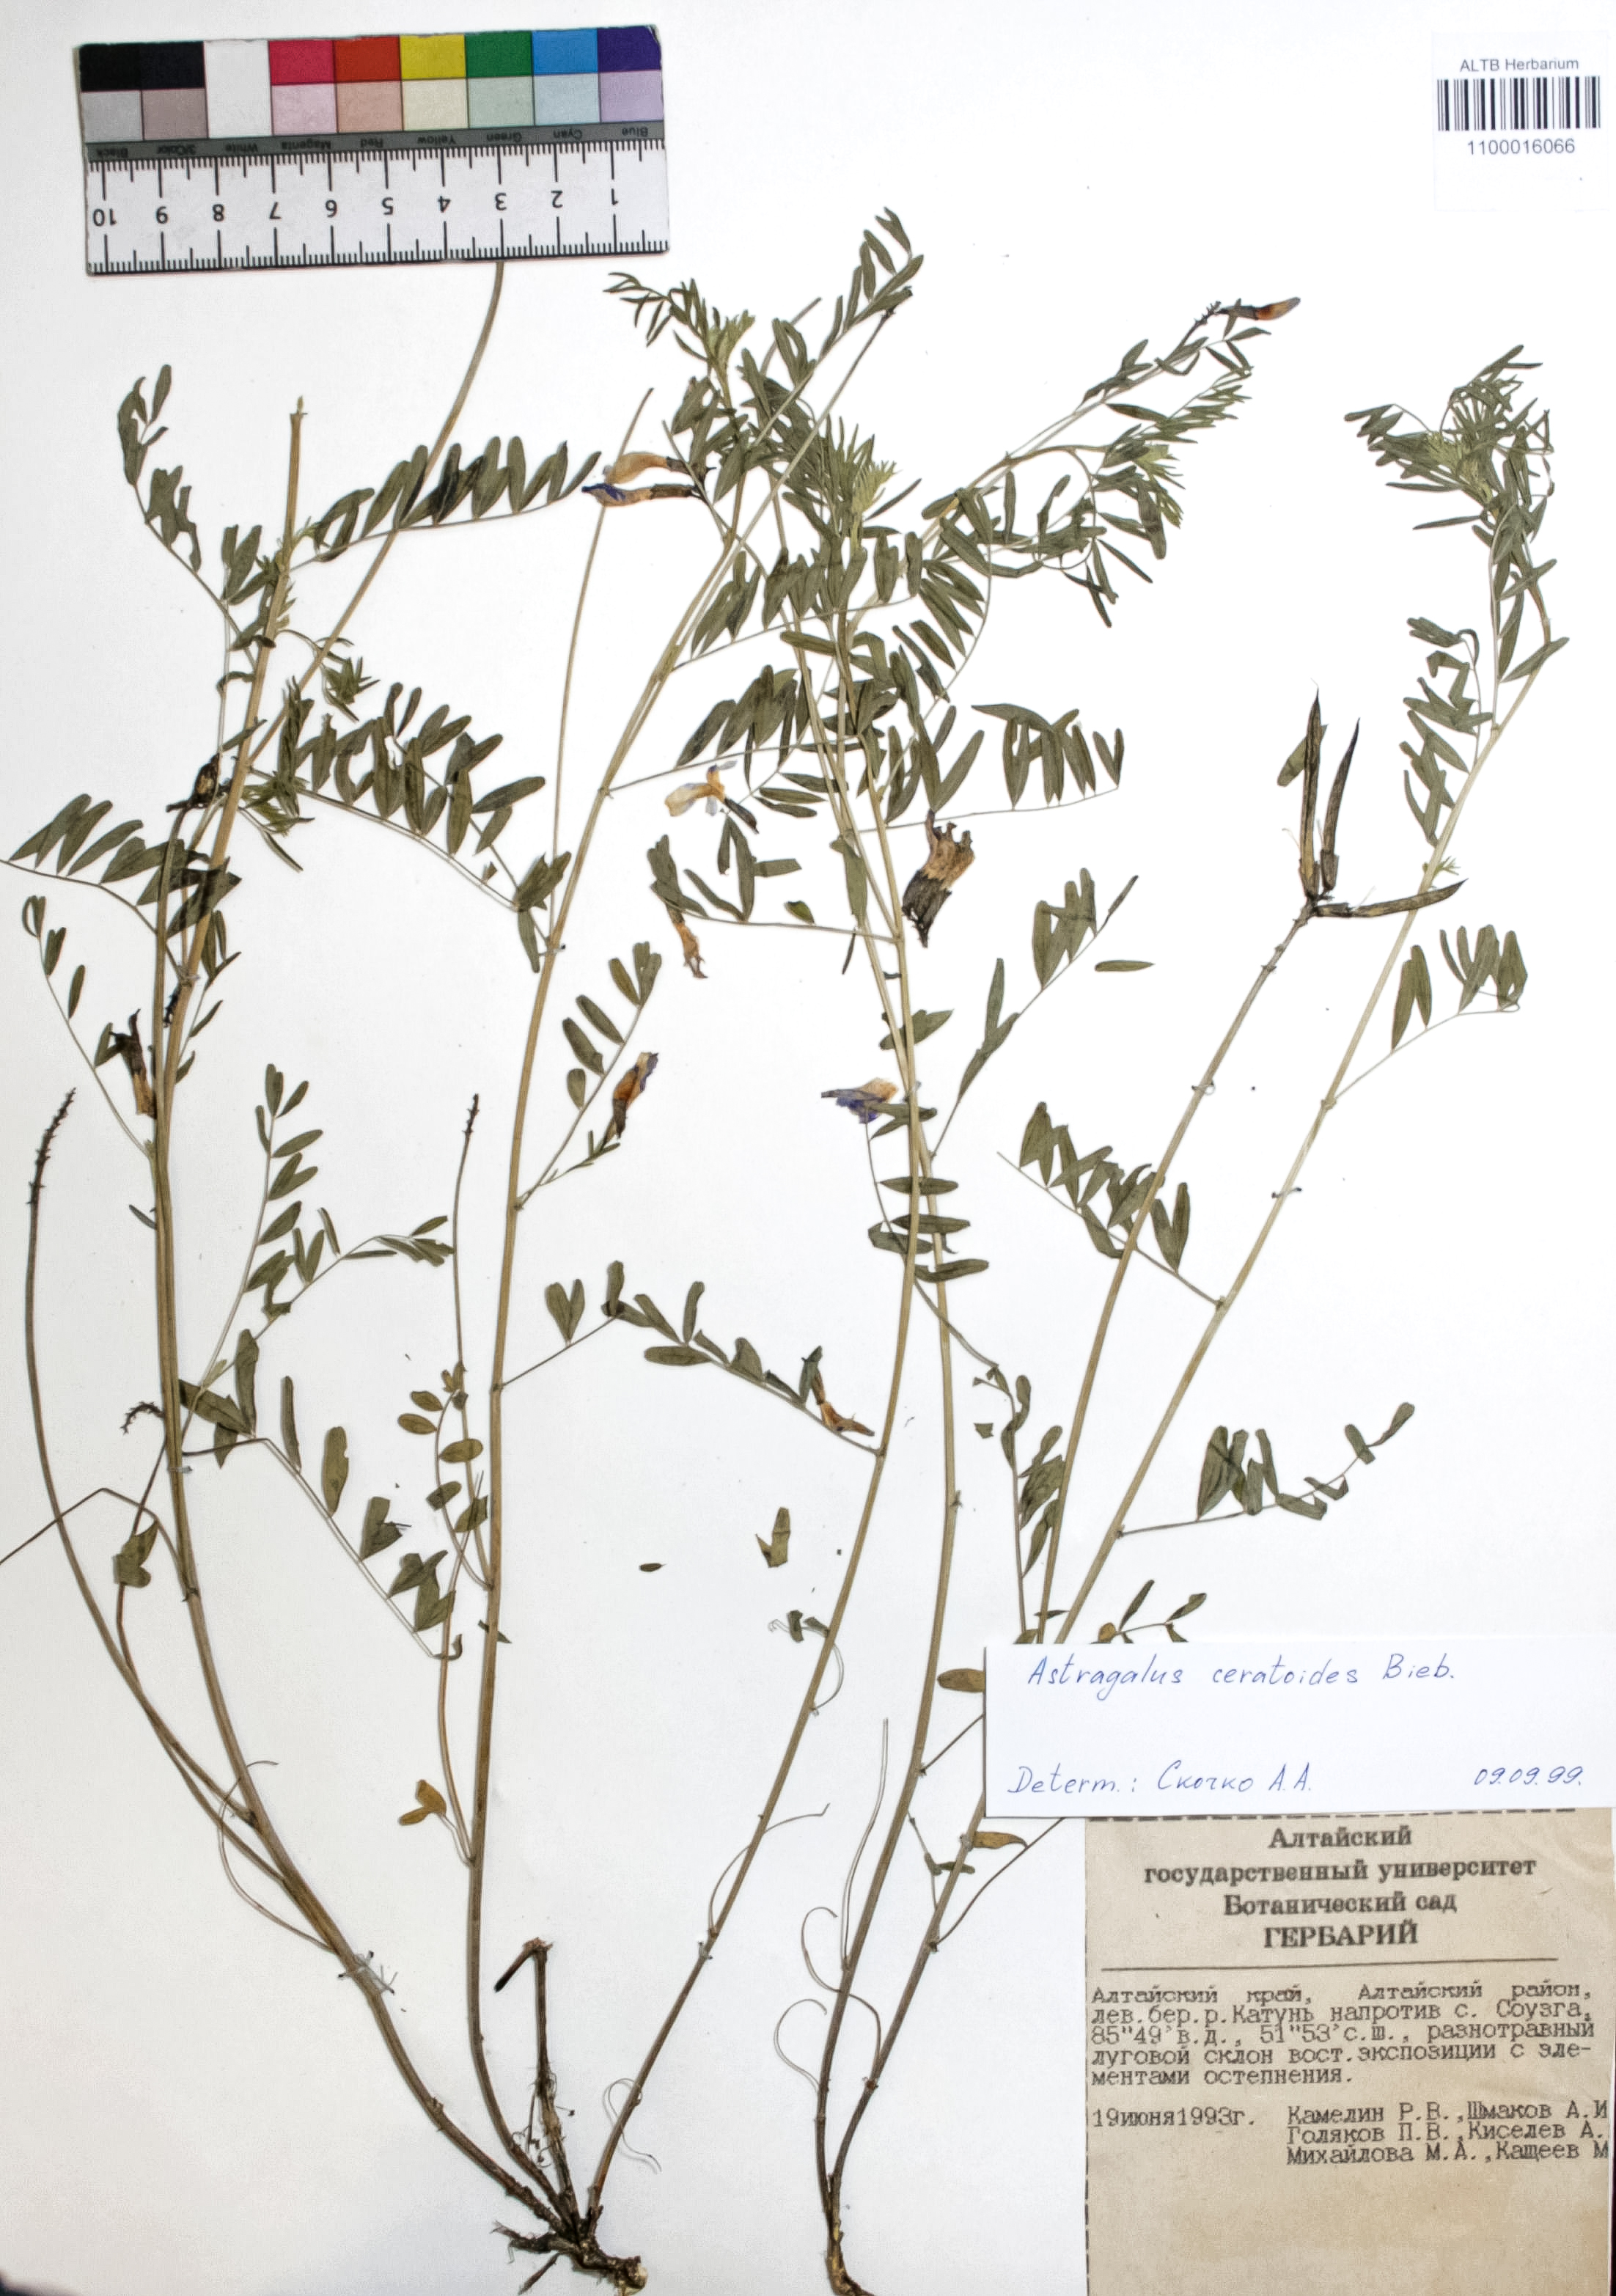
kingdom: Plantae
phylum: Tracheophyta
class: Magnoliopsida
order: Fabales
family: Fabaceae
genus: Astragalus
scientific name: Astragalus ceratoides
